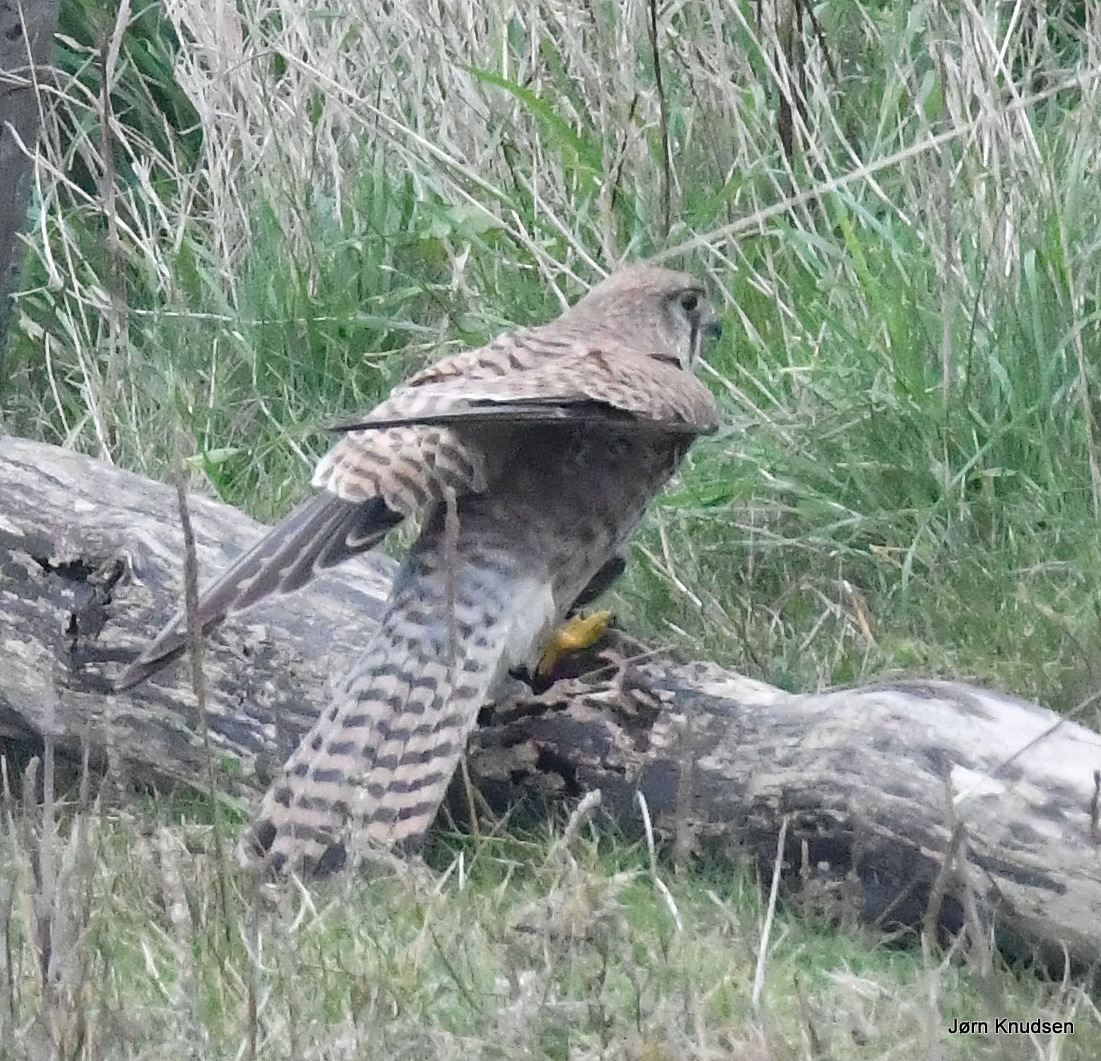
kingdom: Animalia
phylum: Chordata
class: Aves
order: Falconiformes
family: Falconidae
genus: Falco
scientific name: Falco tinnunculus
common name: Tårnfalk
